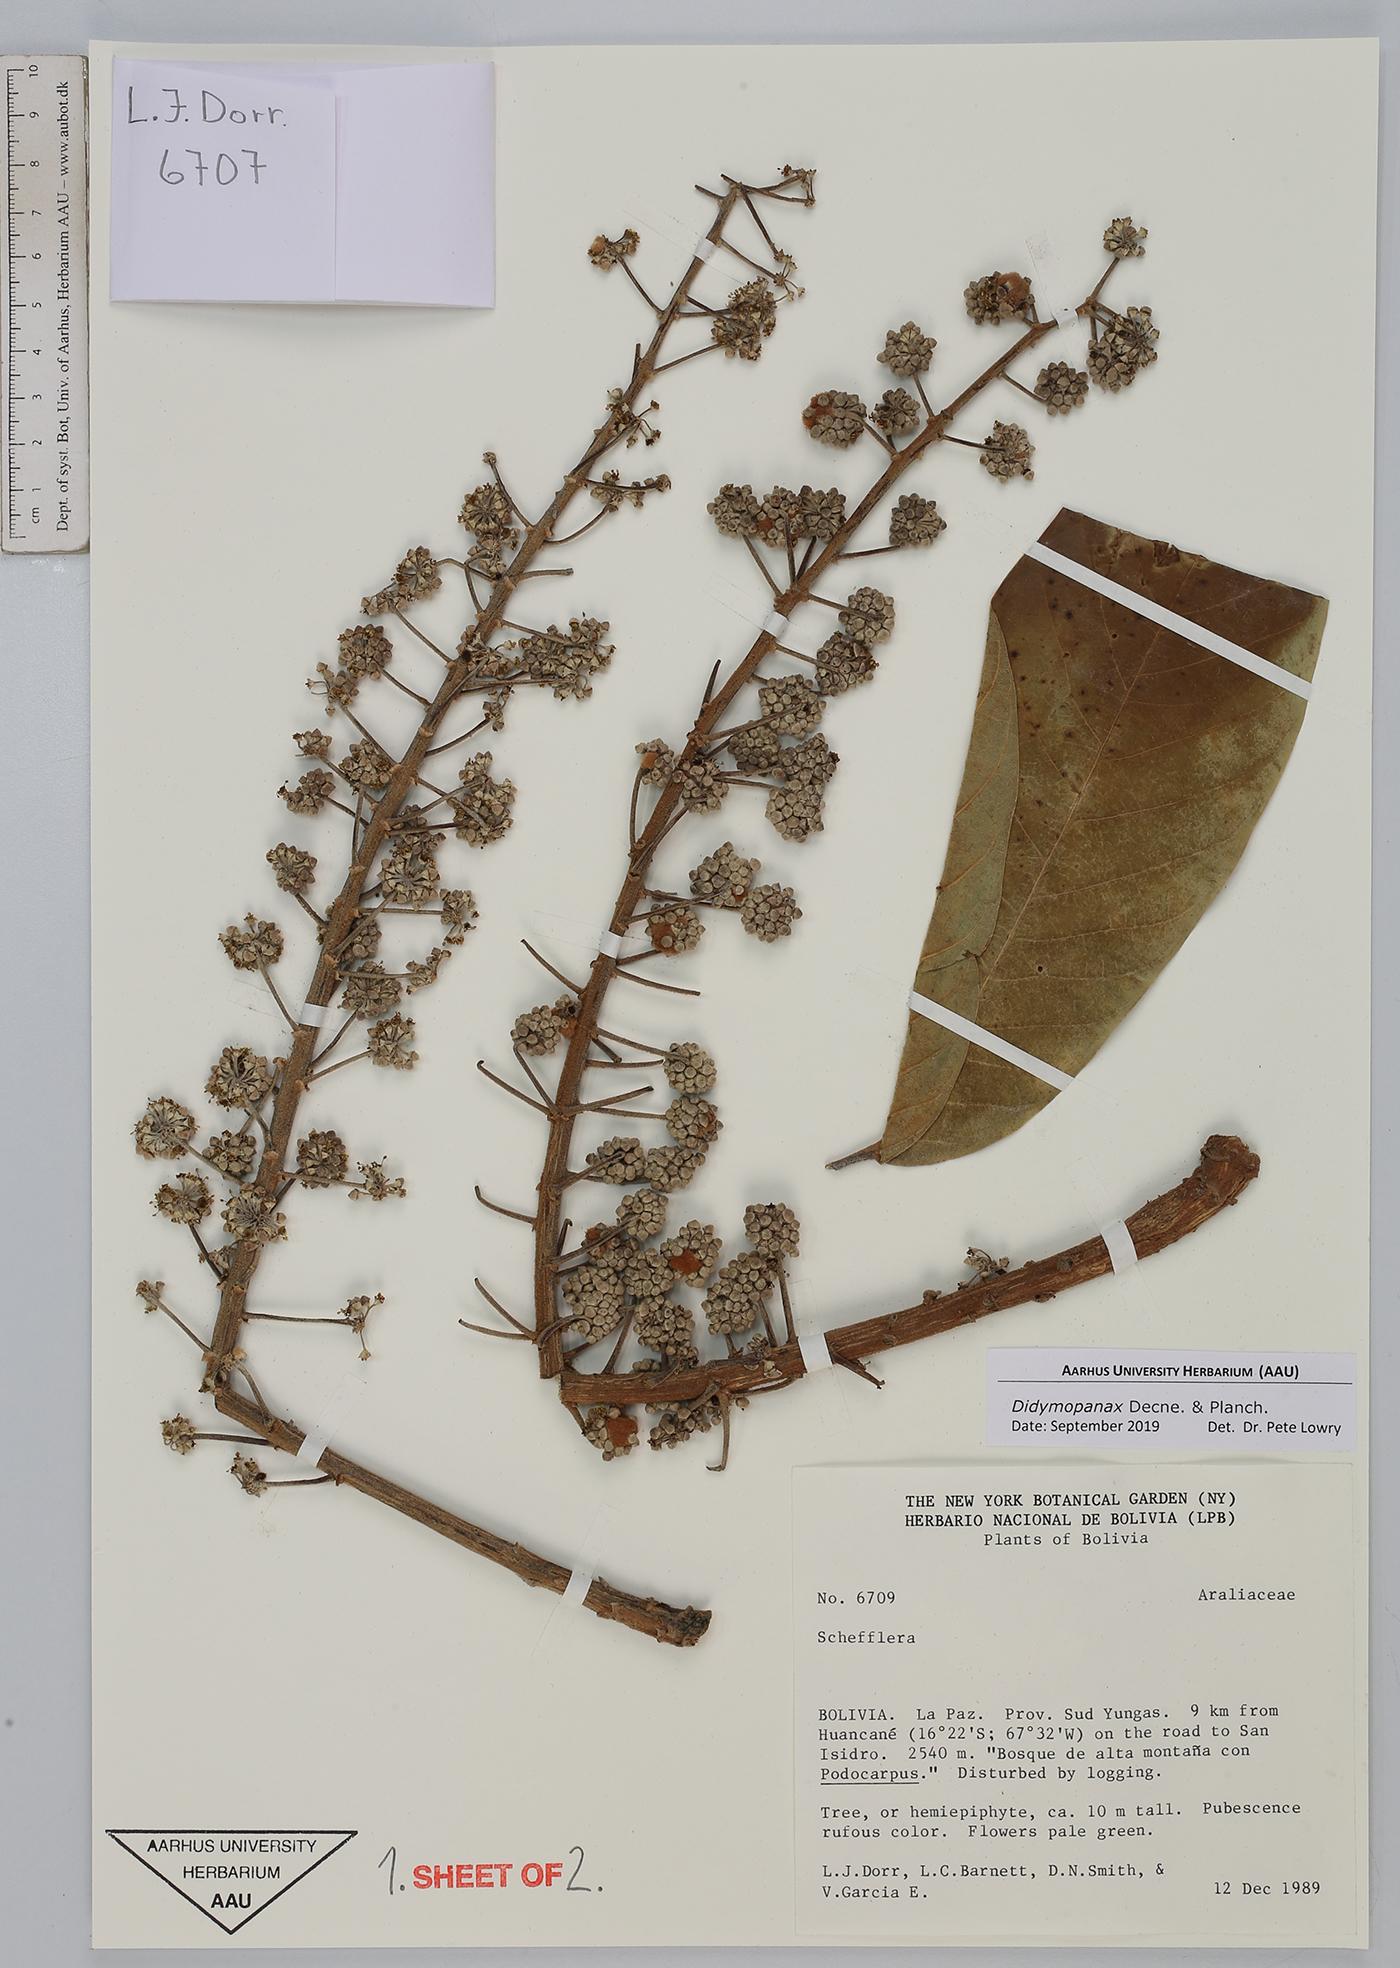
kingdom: Plantae
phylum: Tracheophyta
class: Magnoliopsida
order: Apiales
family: Araliaceae
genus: Didymopanax
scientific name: Didymopanax
